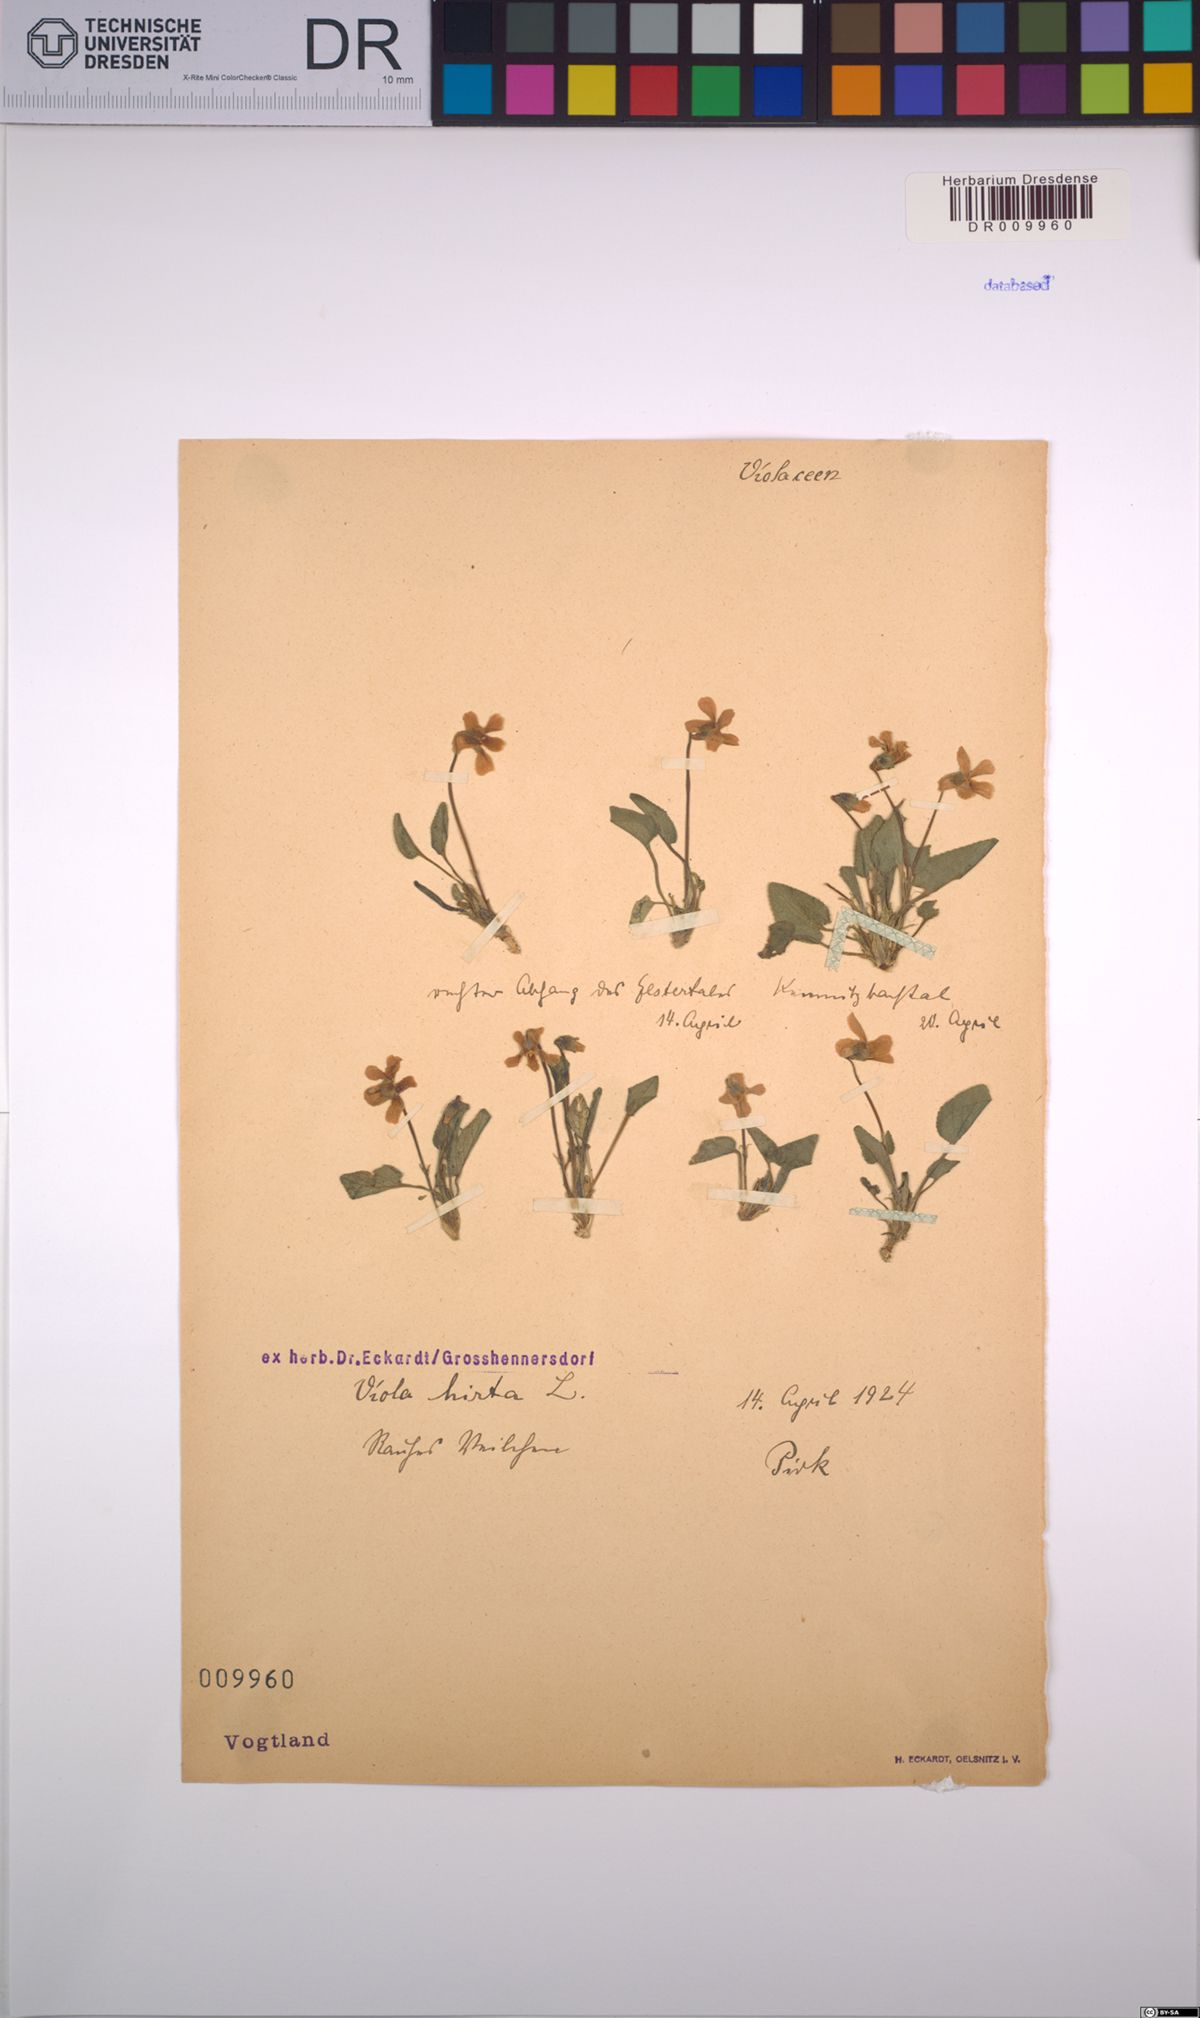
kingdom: Plantae
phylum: Tracheophyta
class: Magnoliopsida
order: Malpighiales
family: Violaceae
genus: Viola
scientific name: Viola hirta
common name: Hairy violet
